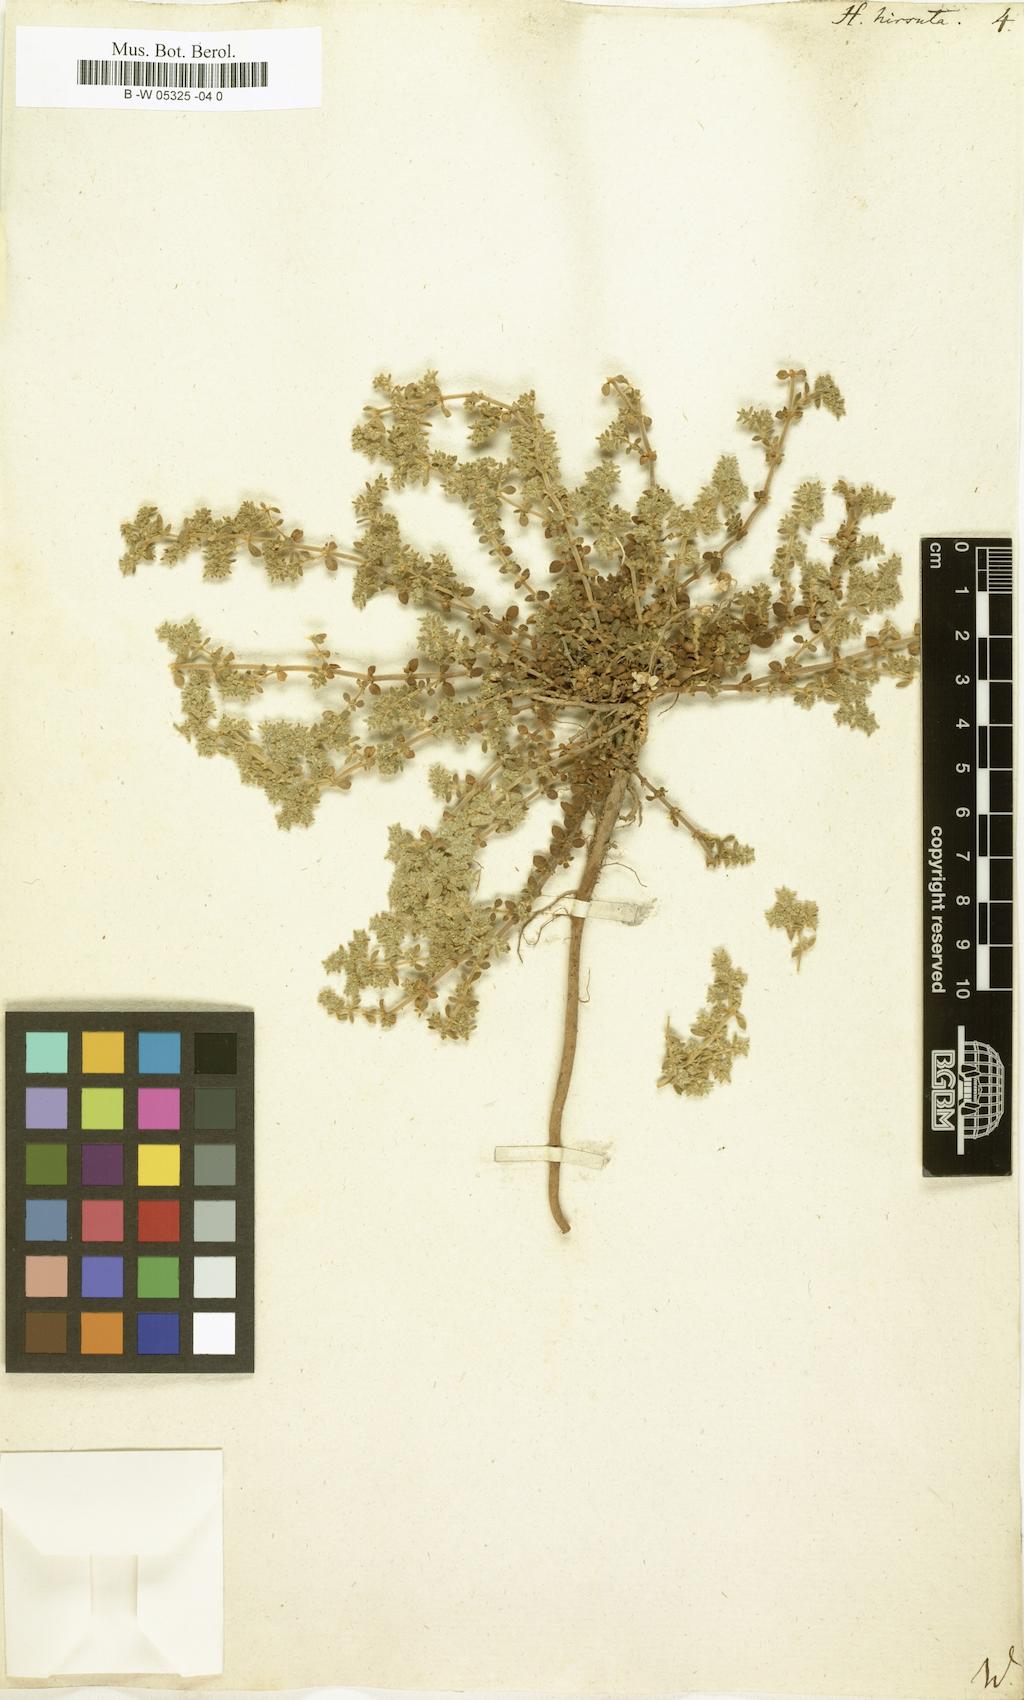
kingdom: Plantae
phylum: Tracheophyta
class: Magnoliopsida
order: Caryophyllales
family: Caryophyllaceae
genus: Herniaria
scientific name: Herniaria hirsuta
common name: Hairy rupturewort
